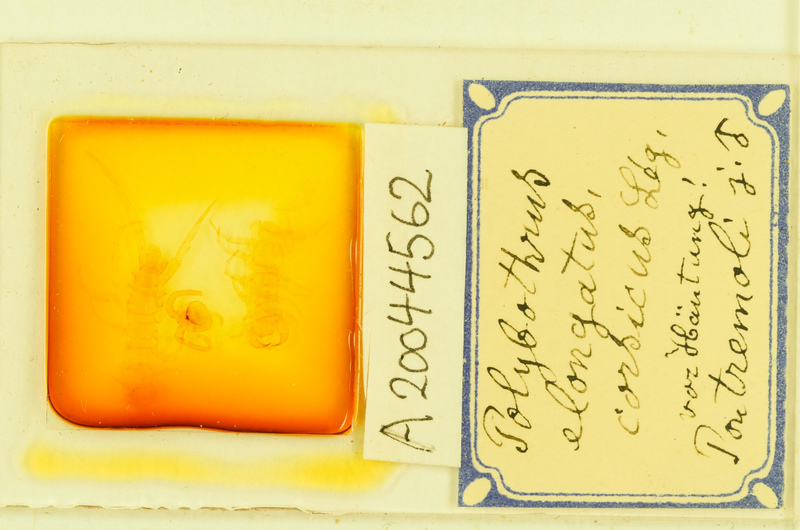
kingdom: Animalia
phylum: Arthropoda
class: Chilopoda
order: Lithobiomorpha
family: Lithobiidae
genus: Polybothrus
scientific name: Polybothrus
